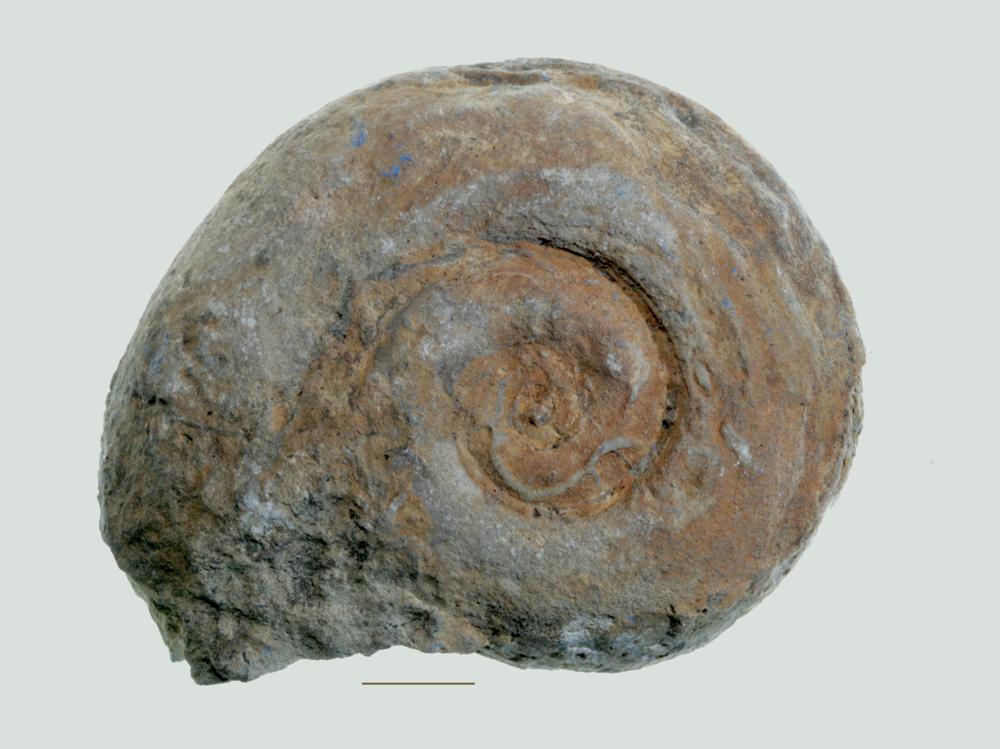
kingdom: Animalia
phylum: Mollusca
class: Gastropoda
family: Lesueurillidae
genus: Lesueurilla
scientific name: Lesueurilla Maclurea infundibulum
